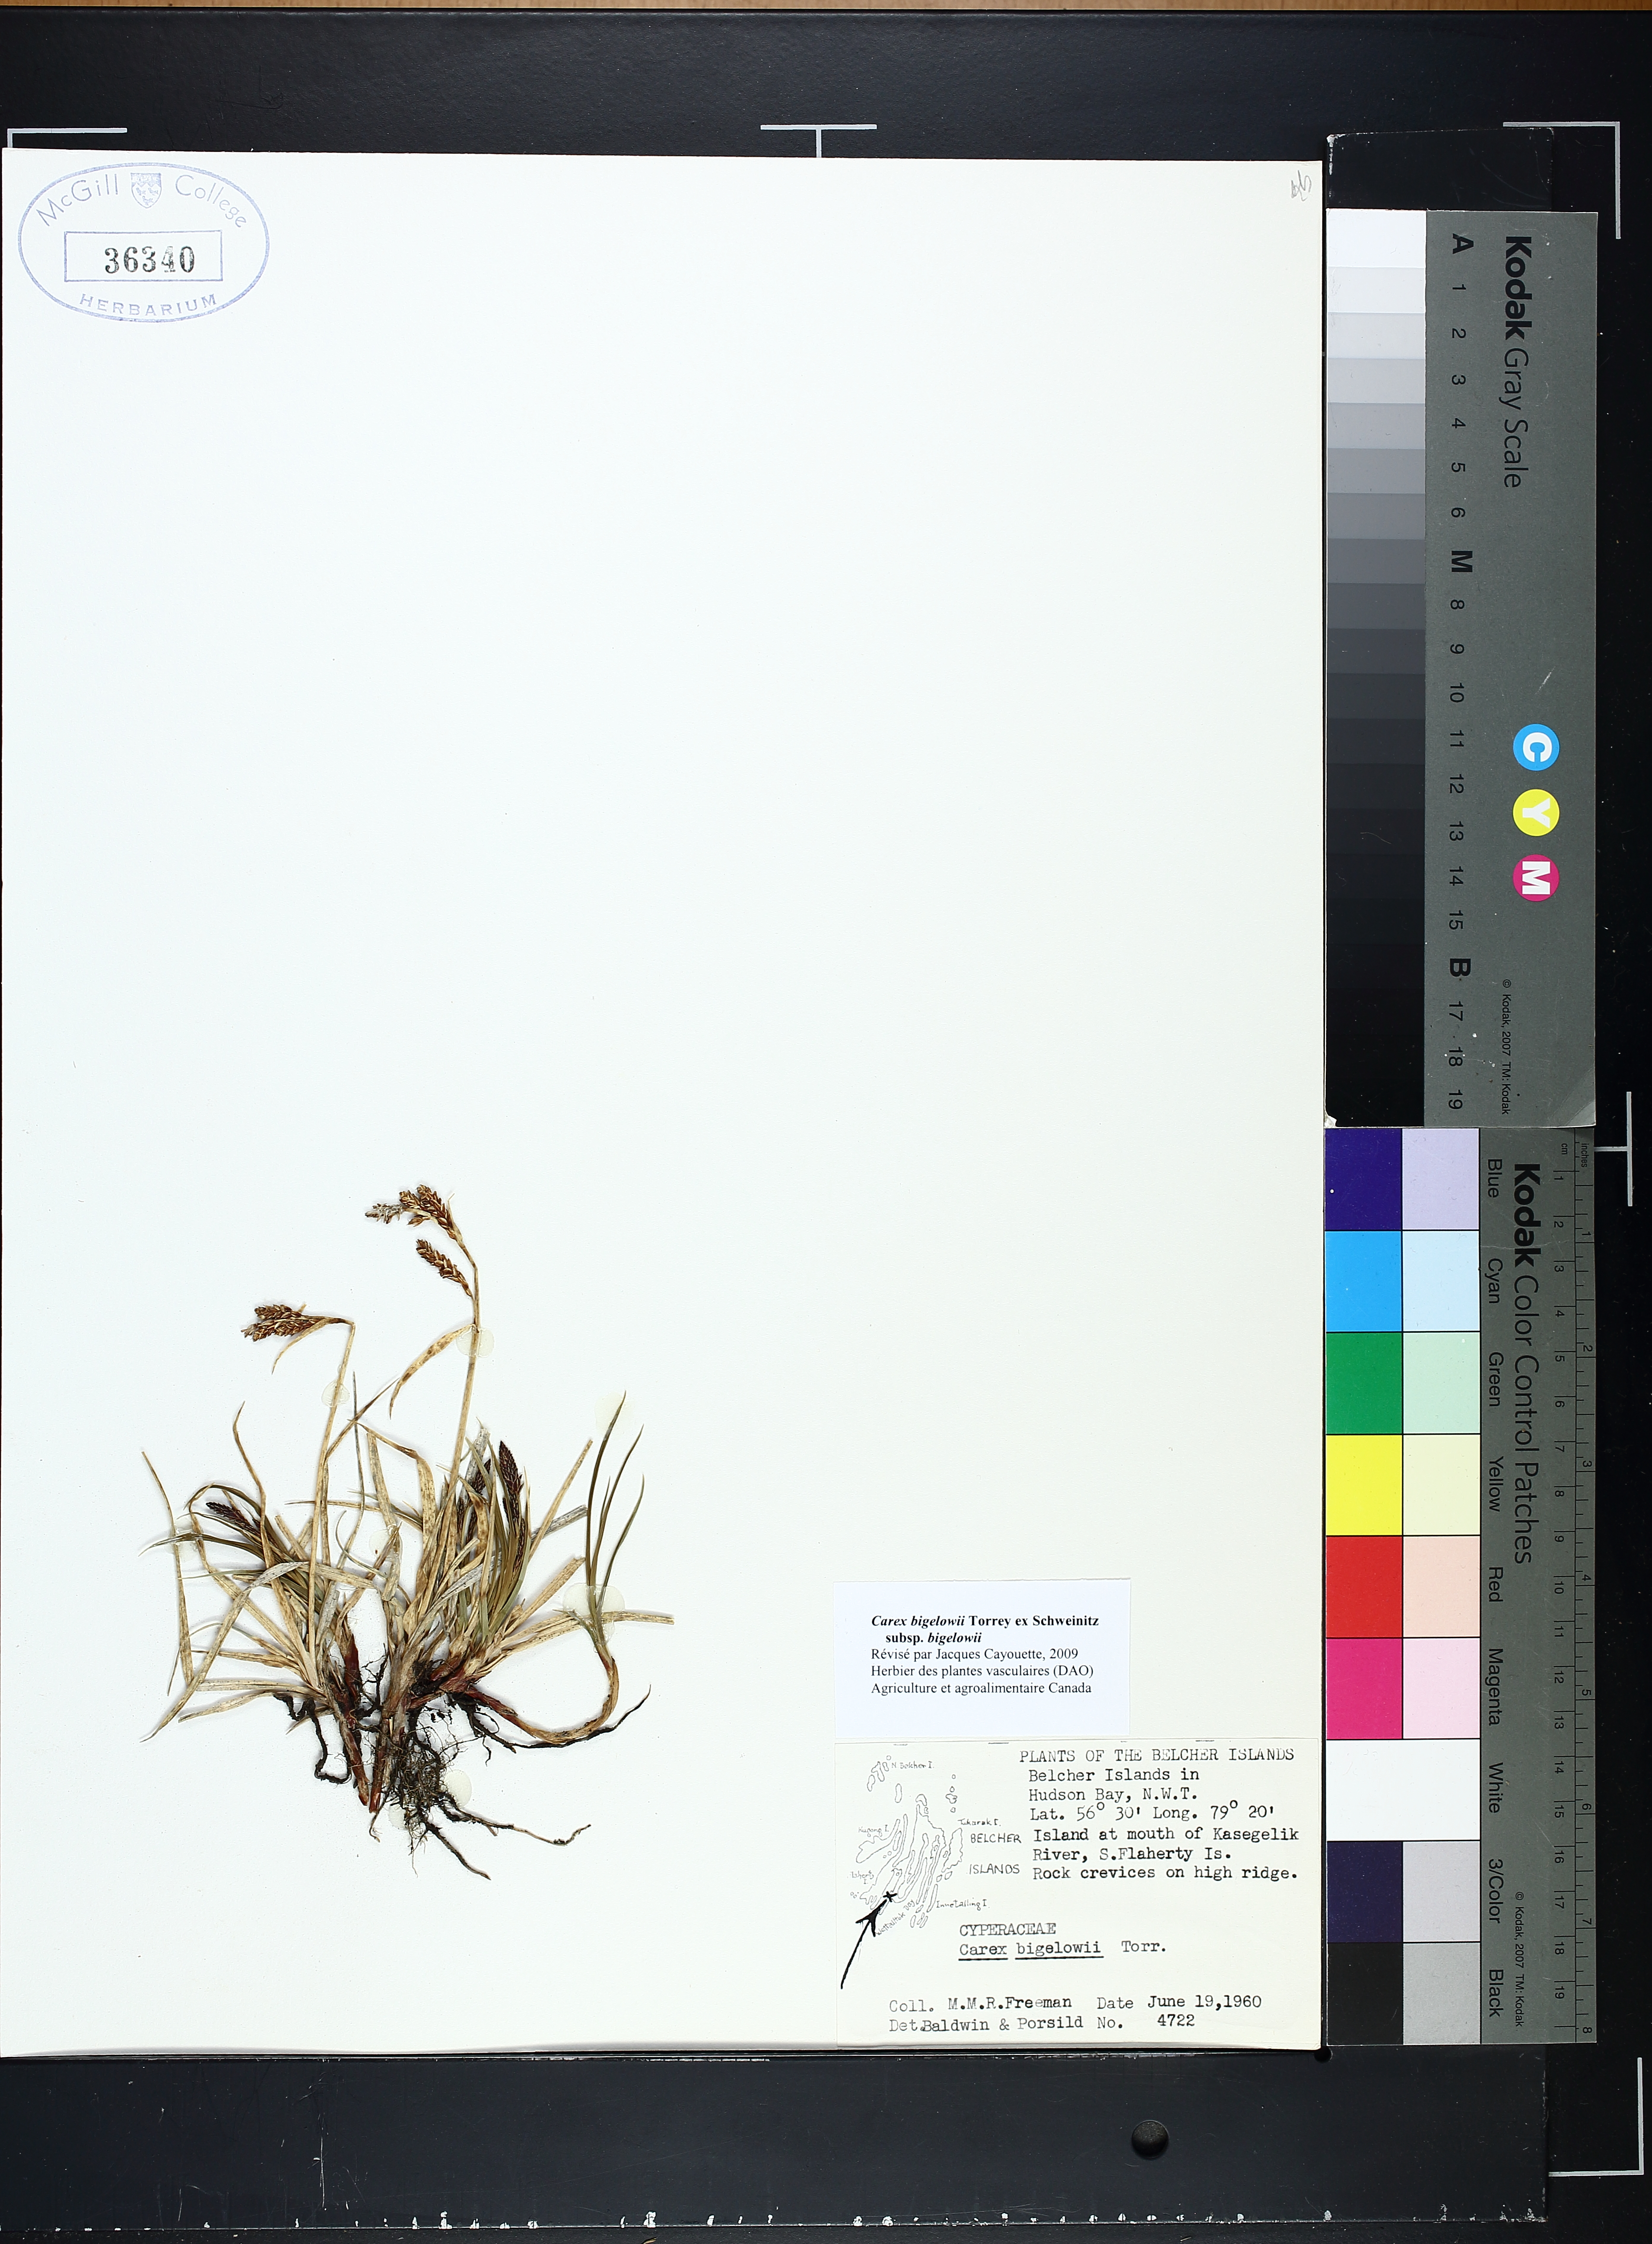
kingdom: Plantae
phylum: Tracheophyta
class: Liliopsida
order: Poales
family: Cyperaceae
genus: Carex
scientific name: Carex bigelowii
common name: Stiff sedge
